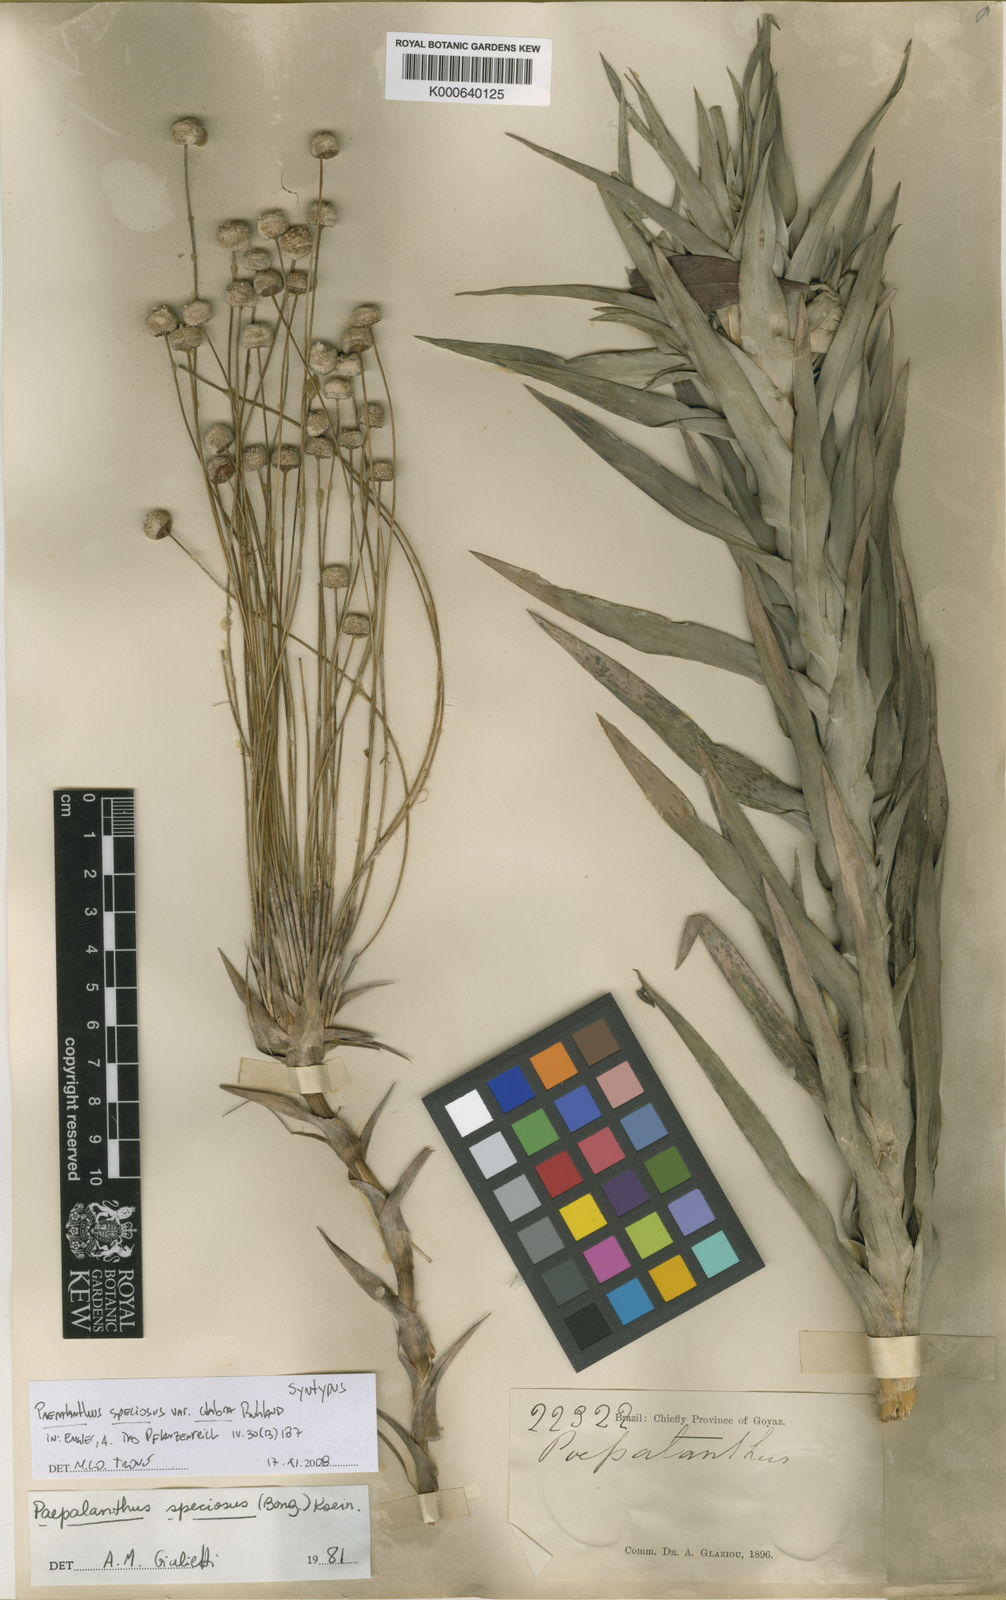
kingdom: Plantae
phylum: Tracheophyta
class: Liliopsida
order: Poales
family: Eriocaulaceae
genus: Paepalanthus
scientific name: Paepalanthus chiquitensis
